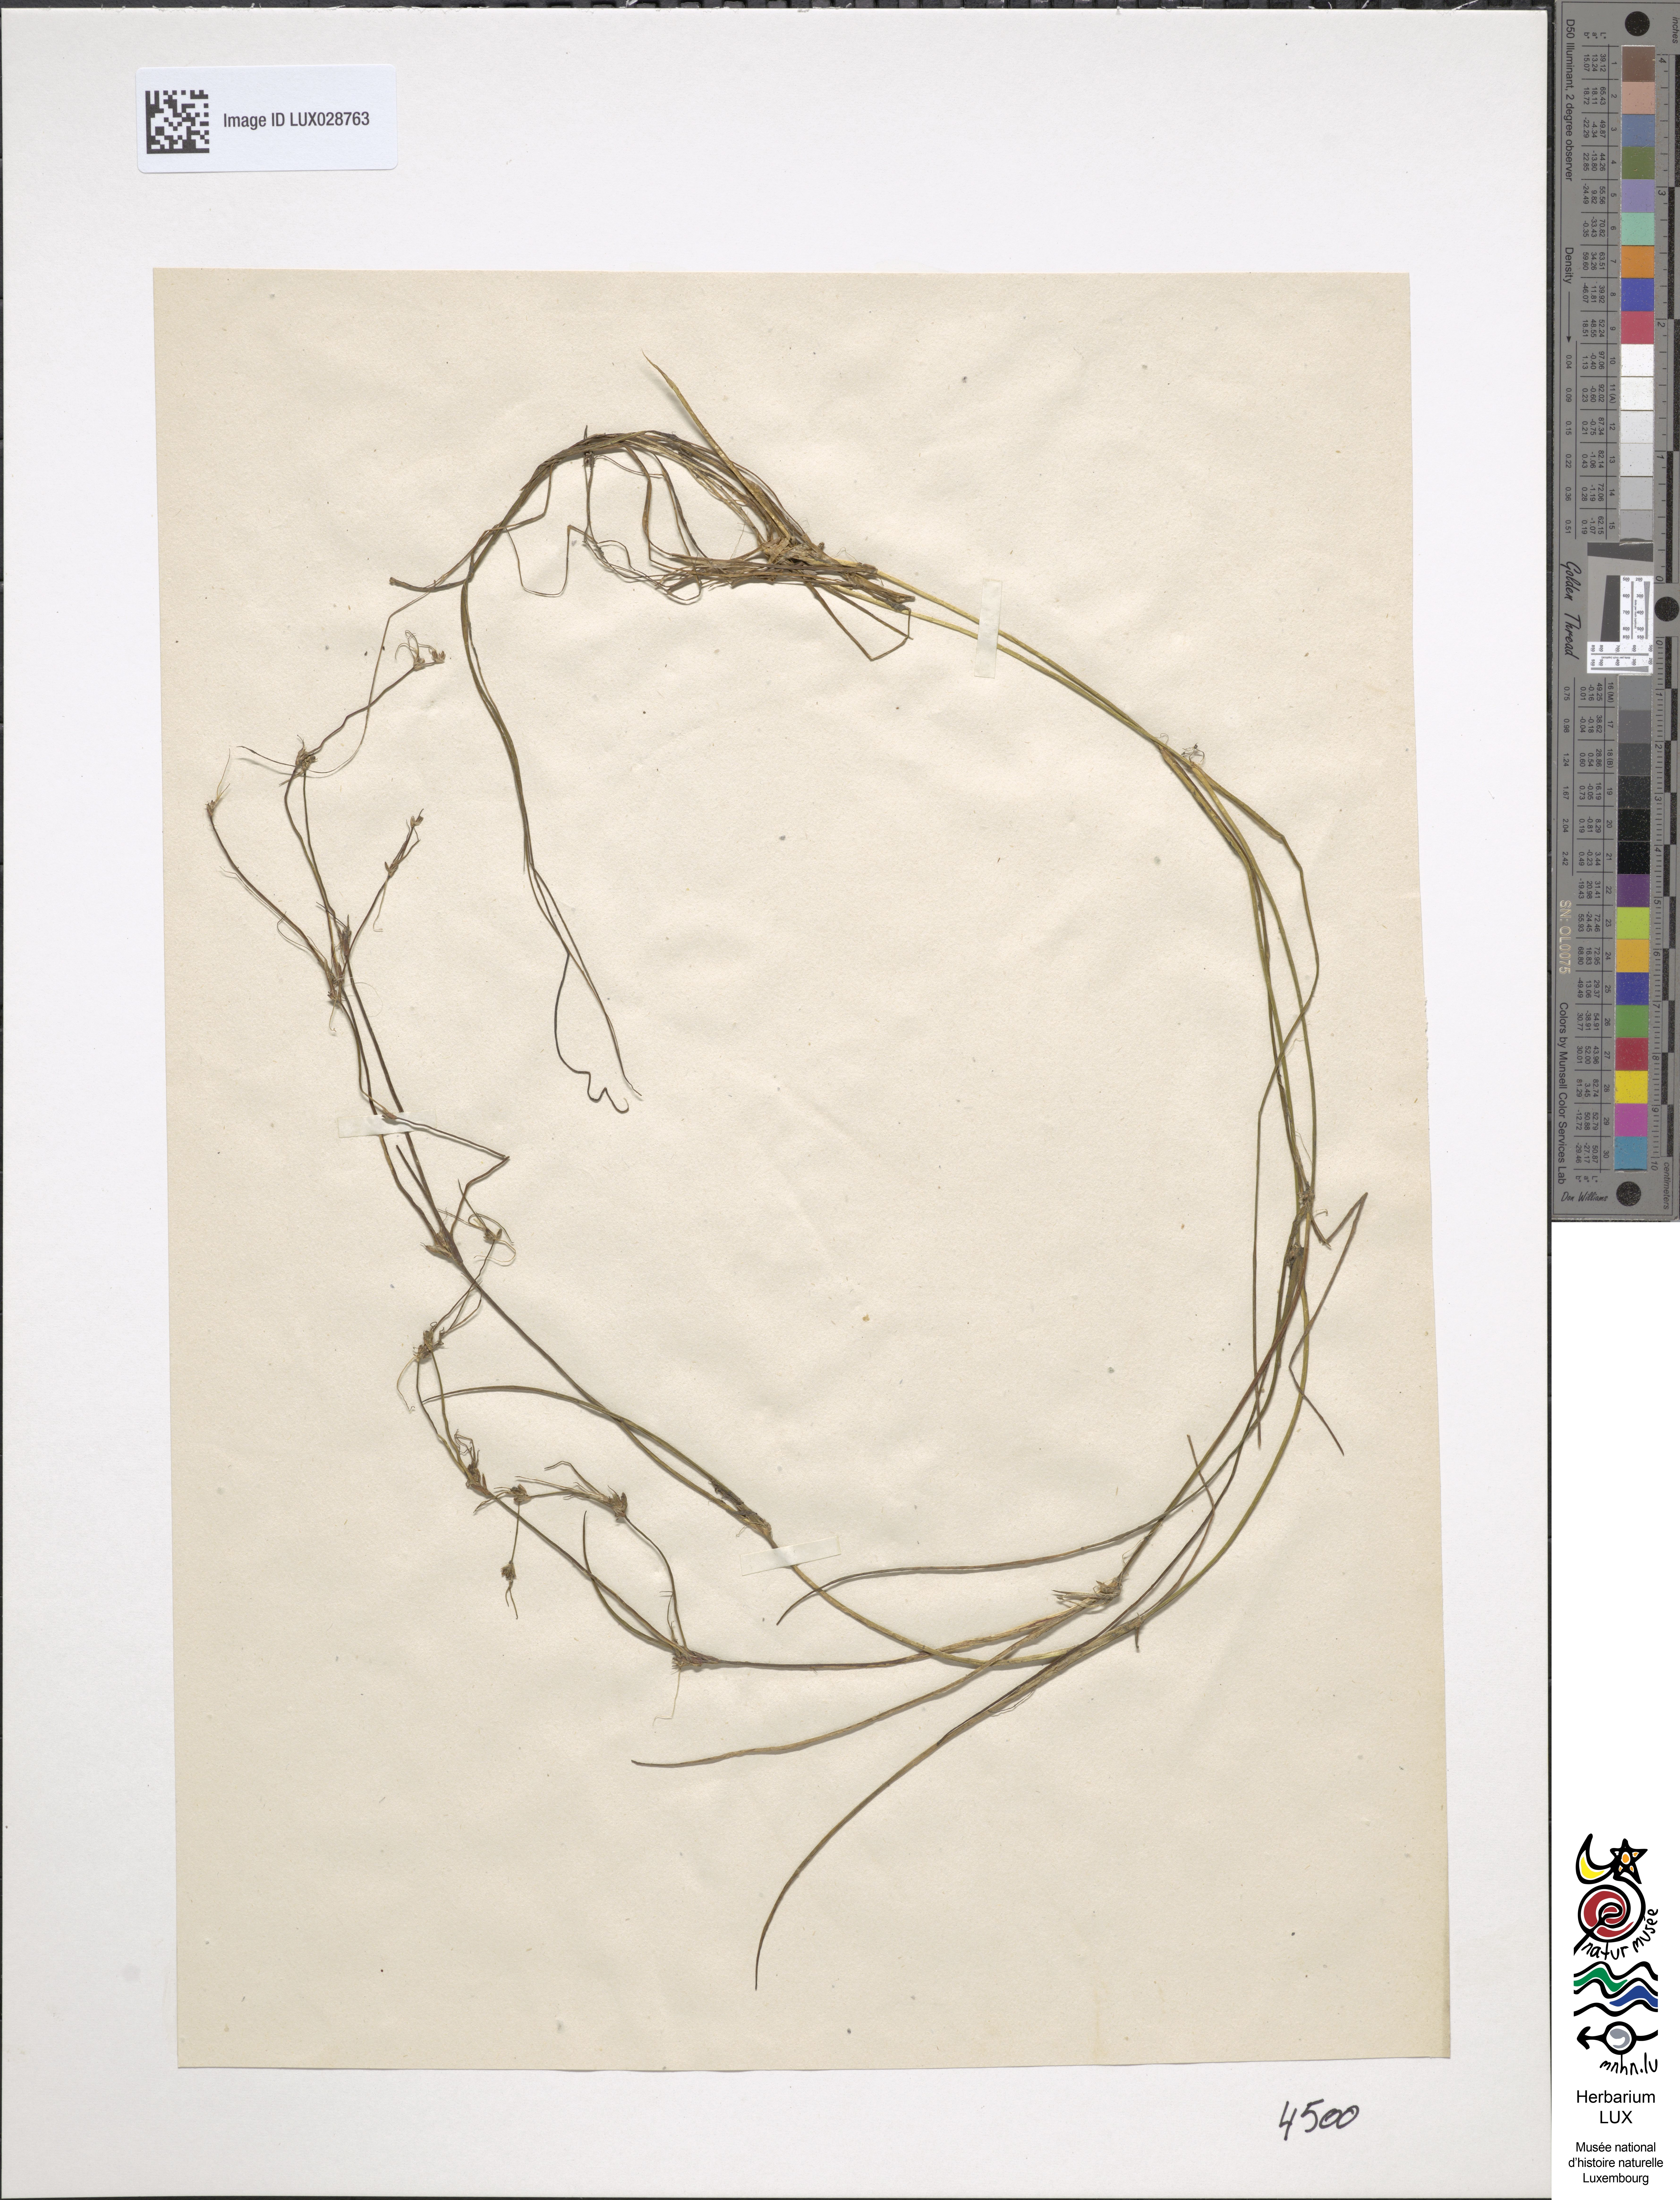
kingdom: Plantae
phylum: Tracheophyta
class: Liliopsida
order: Poales
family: Juncaceae
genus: Juncus
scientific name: Juncus bulbosus
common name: Bulbous rush
